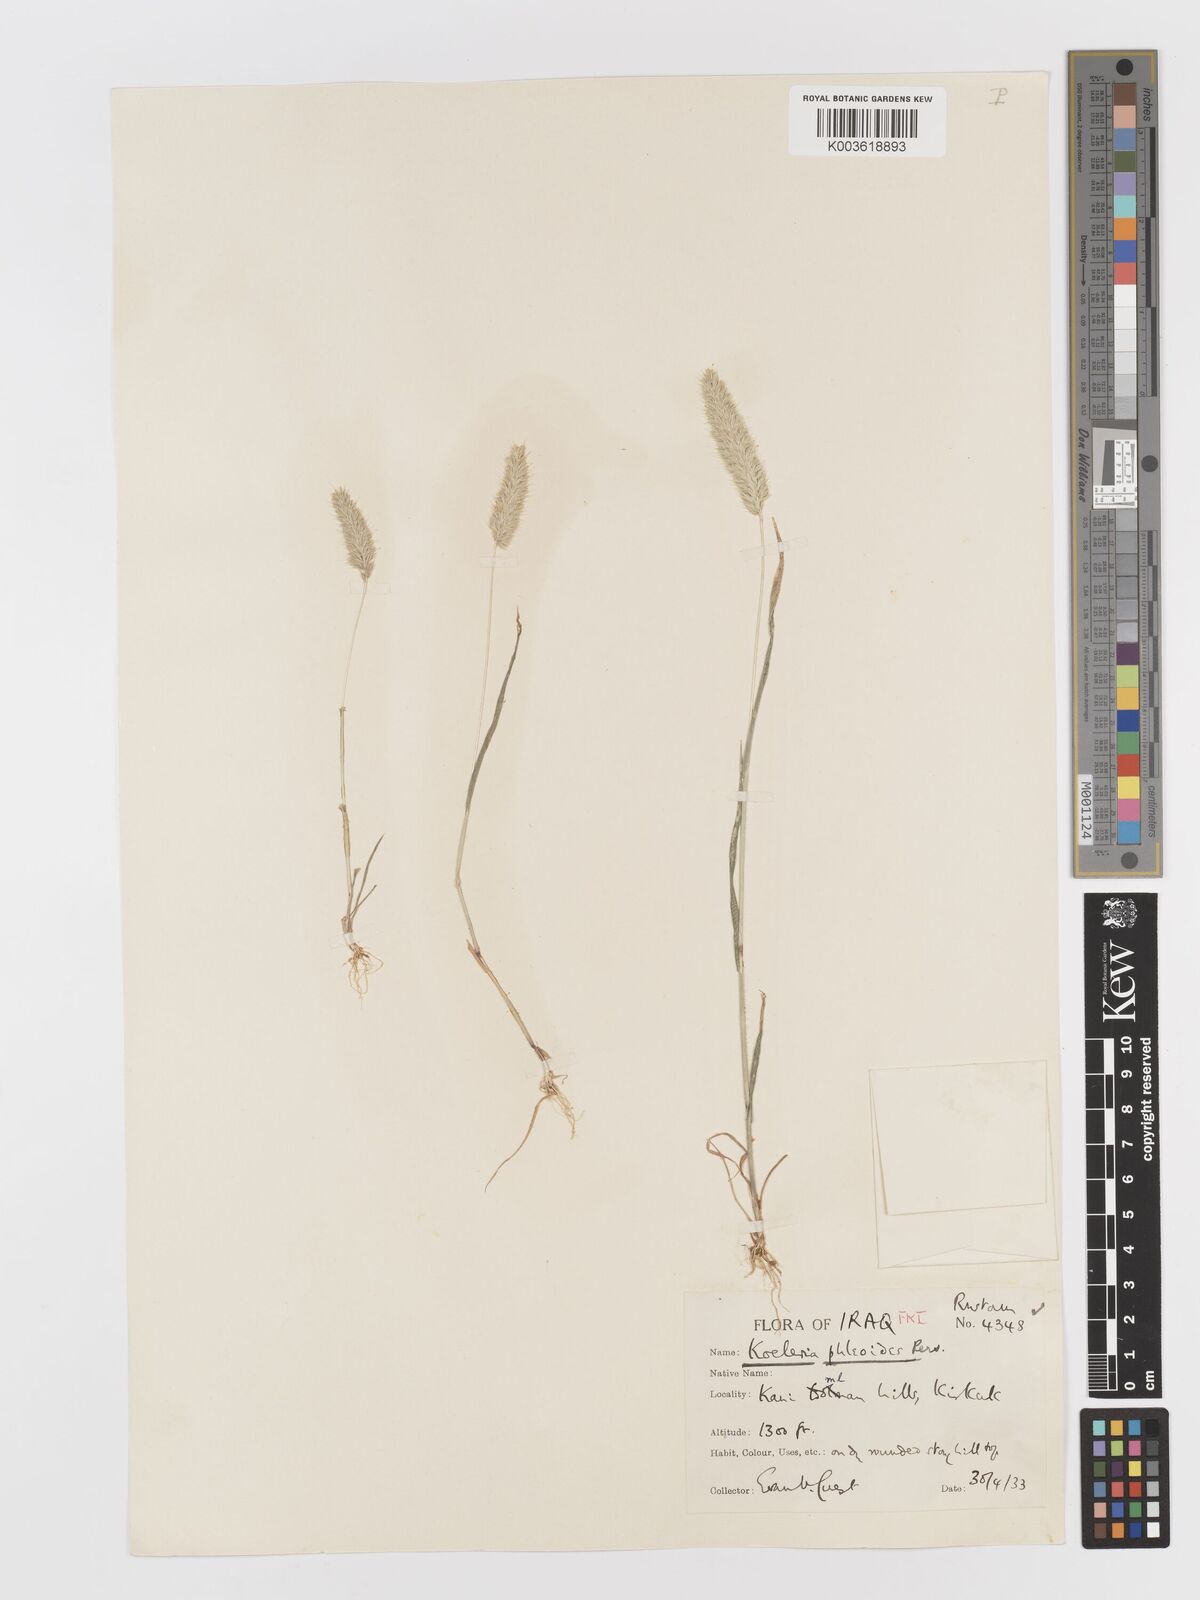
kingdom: Plantae
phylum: Tracheophyta
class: Liliopsida
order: Poales
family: Poaceae
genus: Rostraria
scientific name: Rostraria cristata
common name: Mediterranean hair-grass
